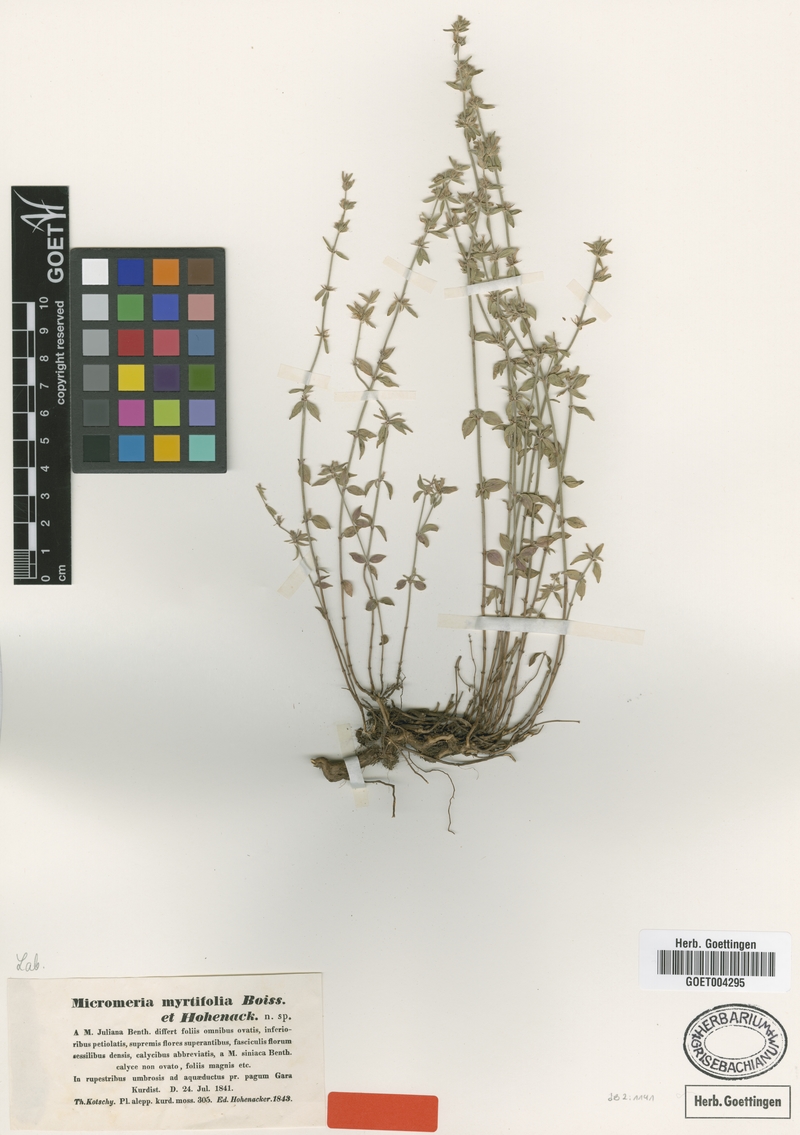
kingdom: Plantae
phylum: Tracheophyta
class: Magnoliopsida
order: Lamiales
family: Lamiaceae
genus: Micromeria
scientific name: Micromeria myrtifolia
